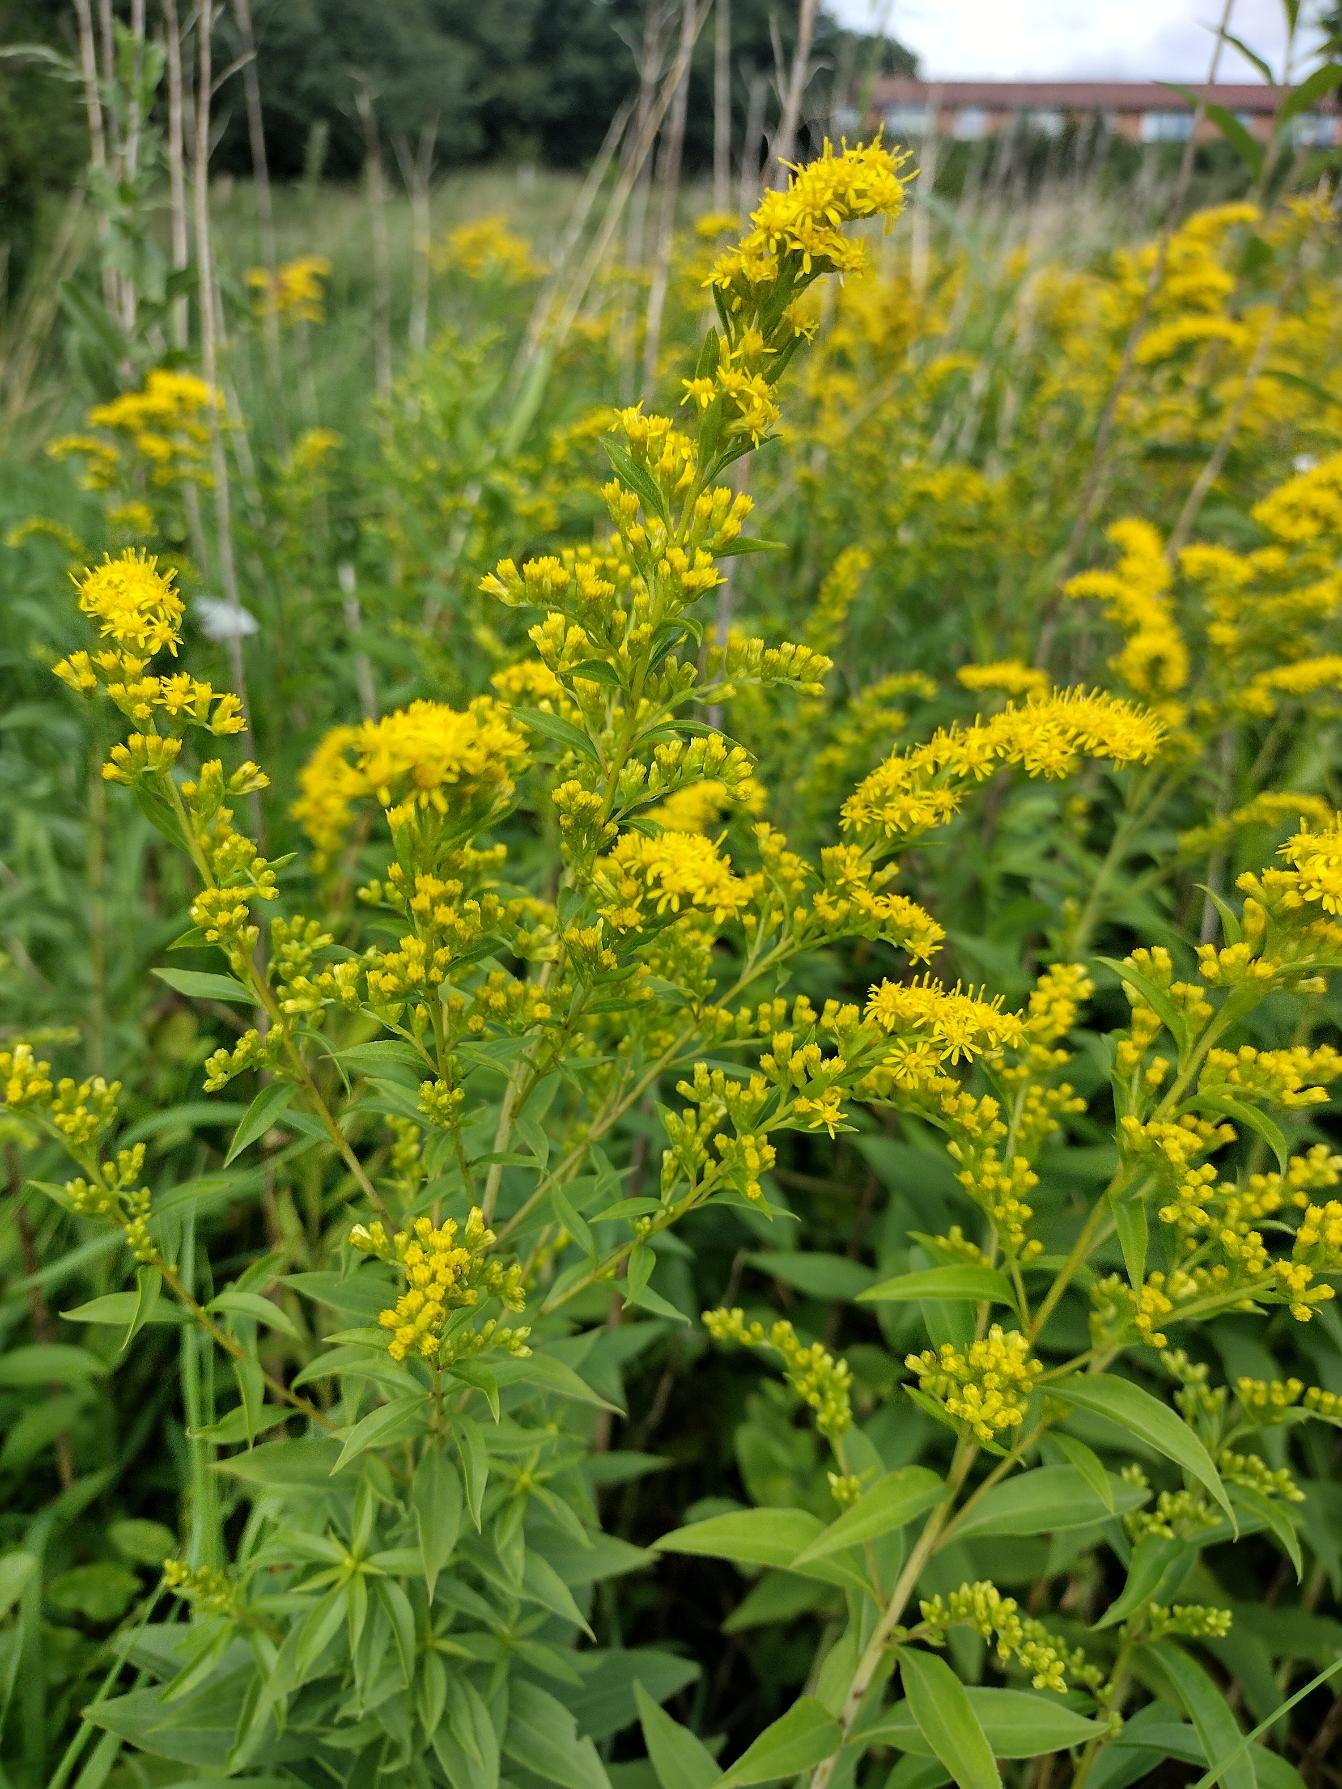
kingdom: Plantae
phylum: Tracheophyta
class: Magnoliopsida
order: Asterales
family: Asteraceae
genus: Solidago
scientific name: Solidago gigantea
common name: Sildig gyldenris
